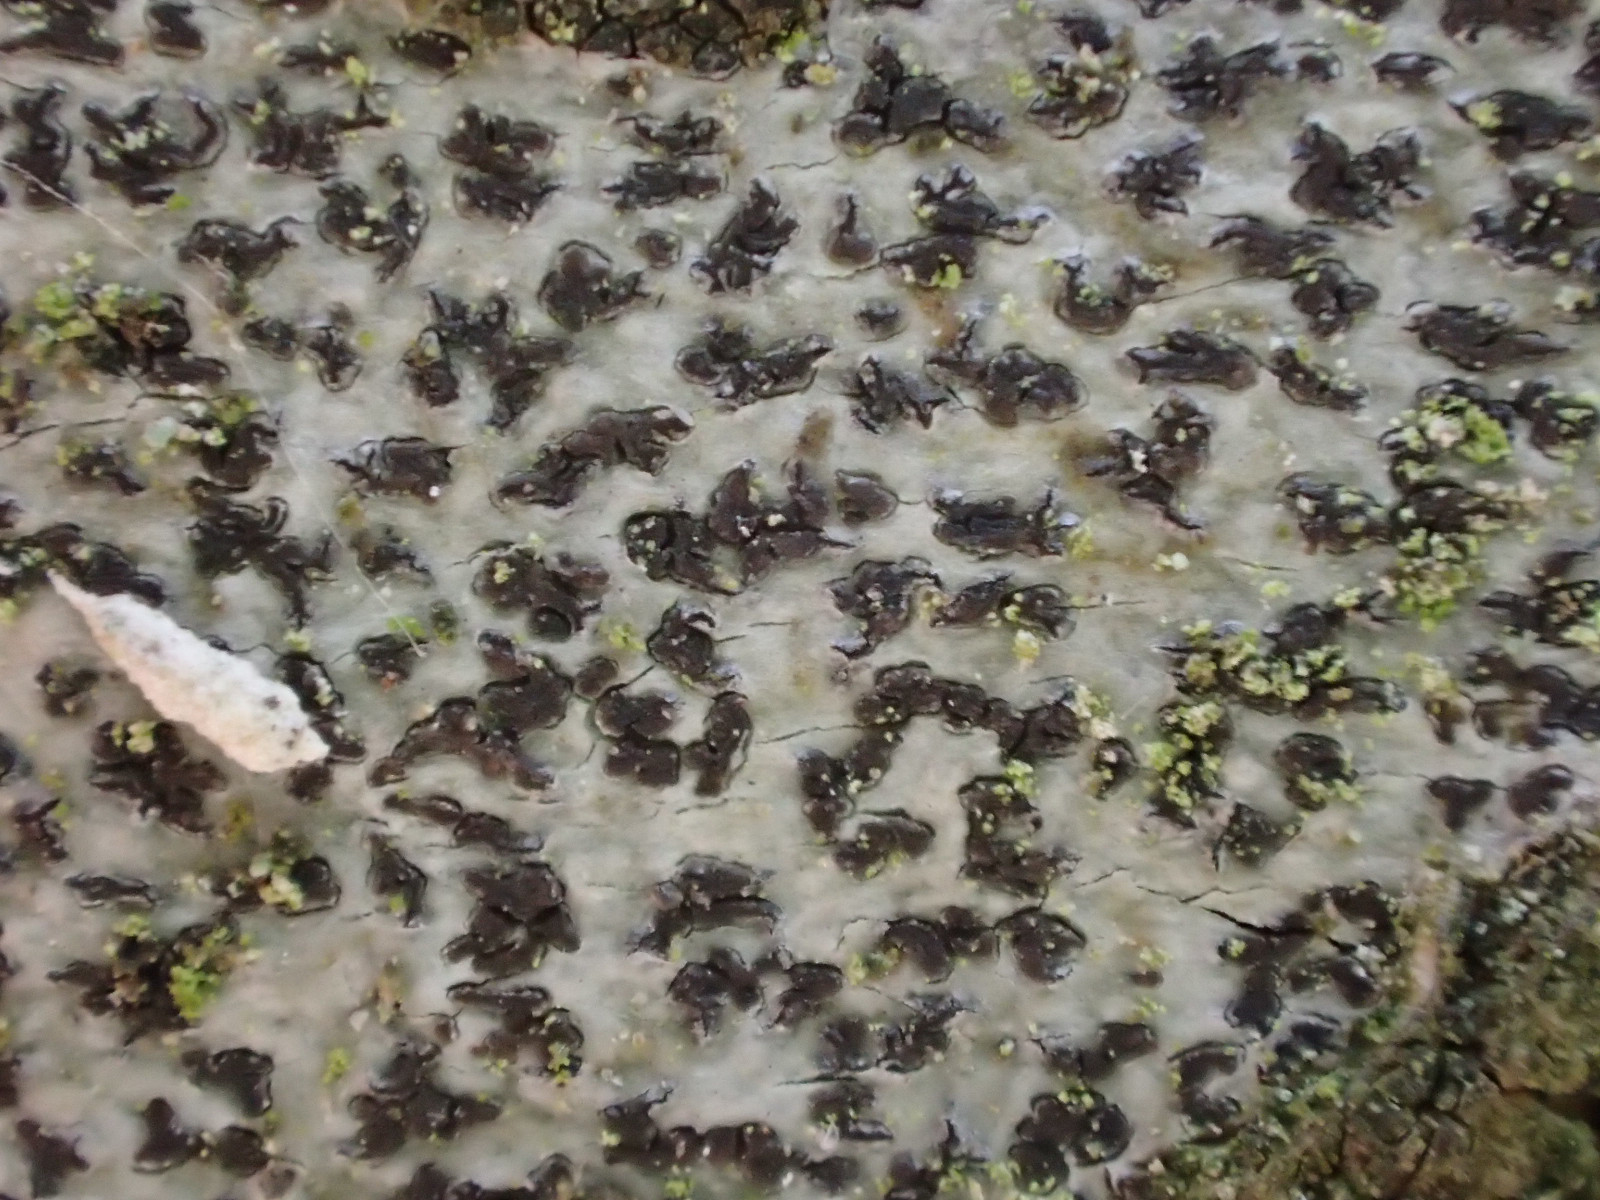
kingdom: Fungi
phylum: Ascomycota
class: Arthoniomycetes
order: Arthoniales
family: Arthoniaceae
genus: Arthonia
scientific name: Arthonia radiata
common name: stjerne-pletlav
